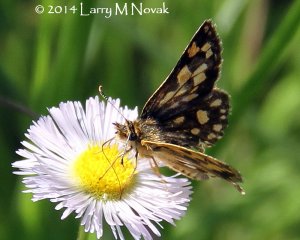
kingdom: Animalia
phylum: Arthropoda
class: Insecta
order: Lepidoptera
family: Hesperiidae
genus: Carterocephalus
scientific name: Carterocephalus palaemon
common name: Chequered Skipper
